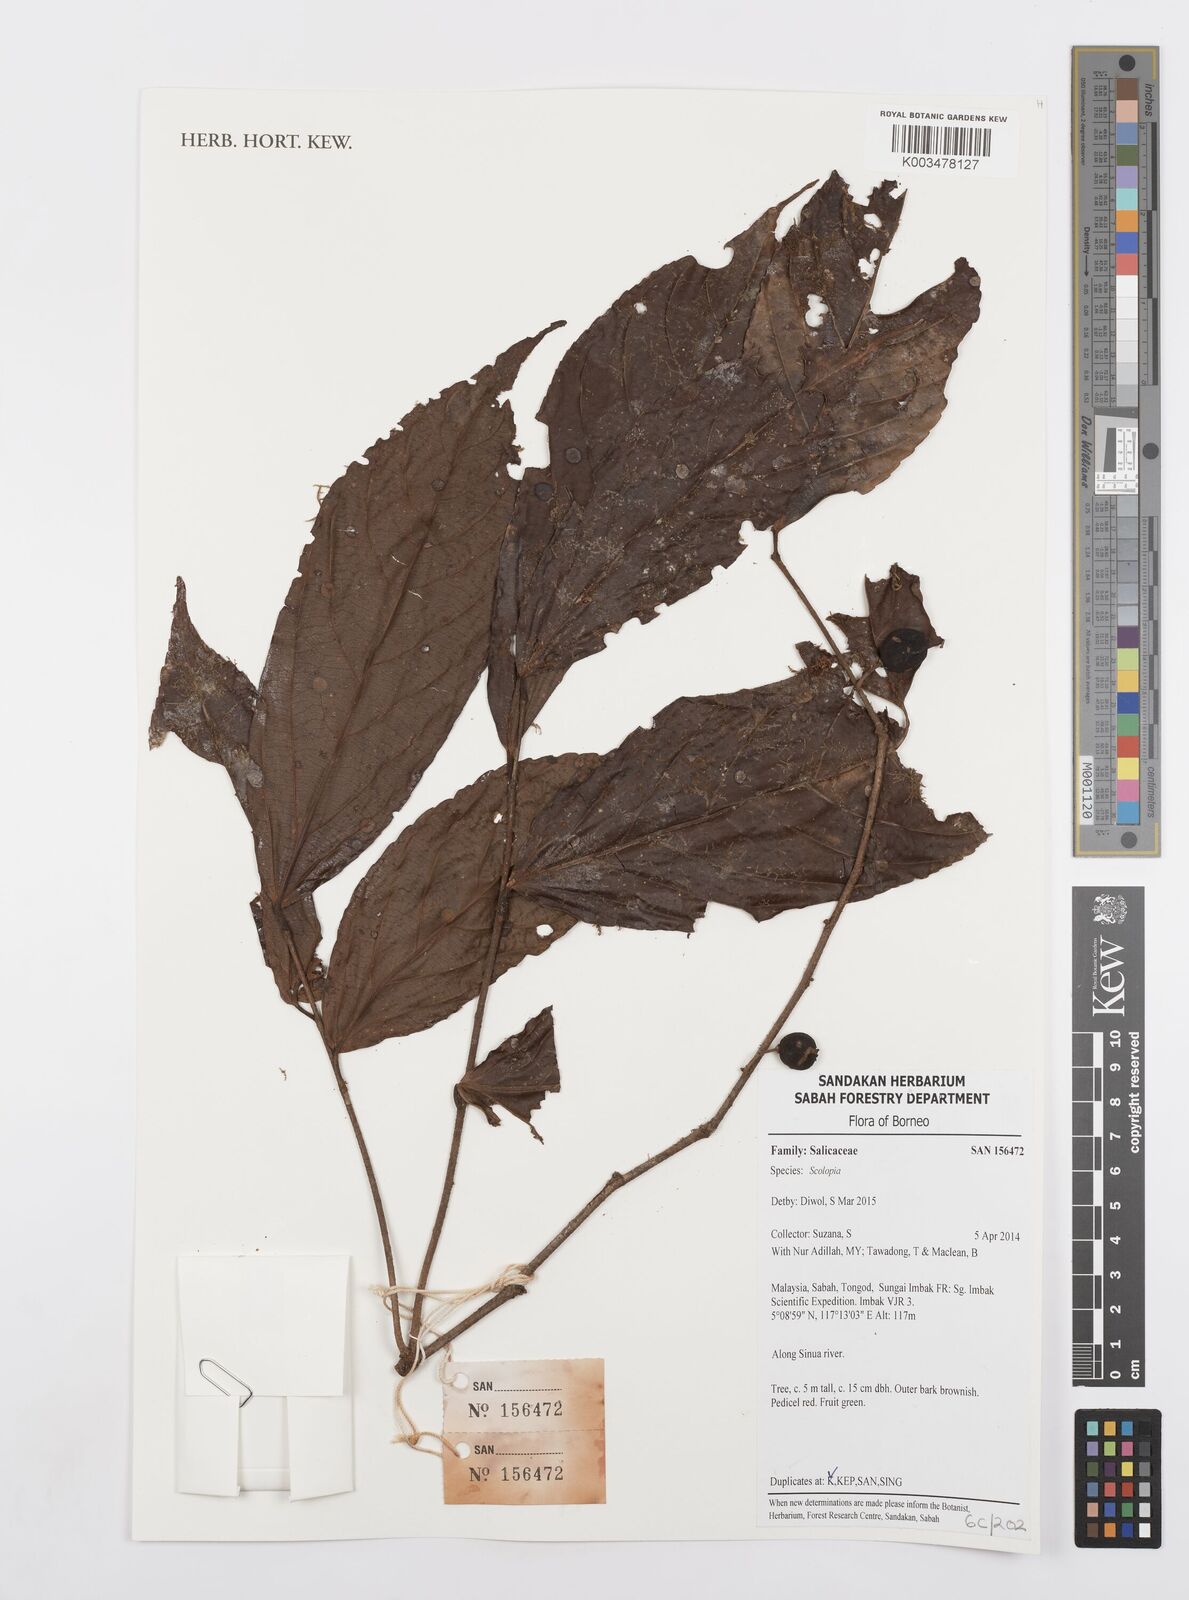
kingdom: Plantae
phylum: Tracheophyta
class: Magnoliopsida
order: Malpighiales
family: Salicaceae
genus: Scolopia
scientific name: Scolopia
